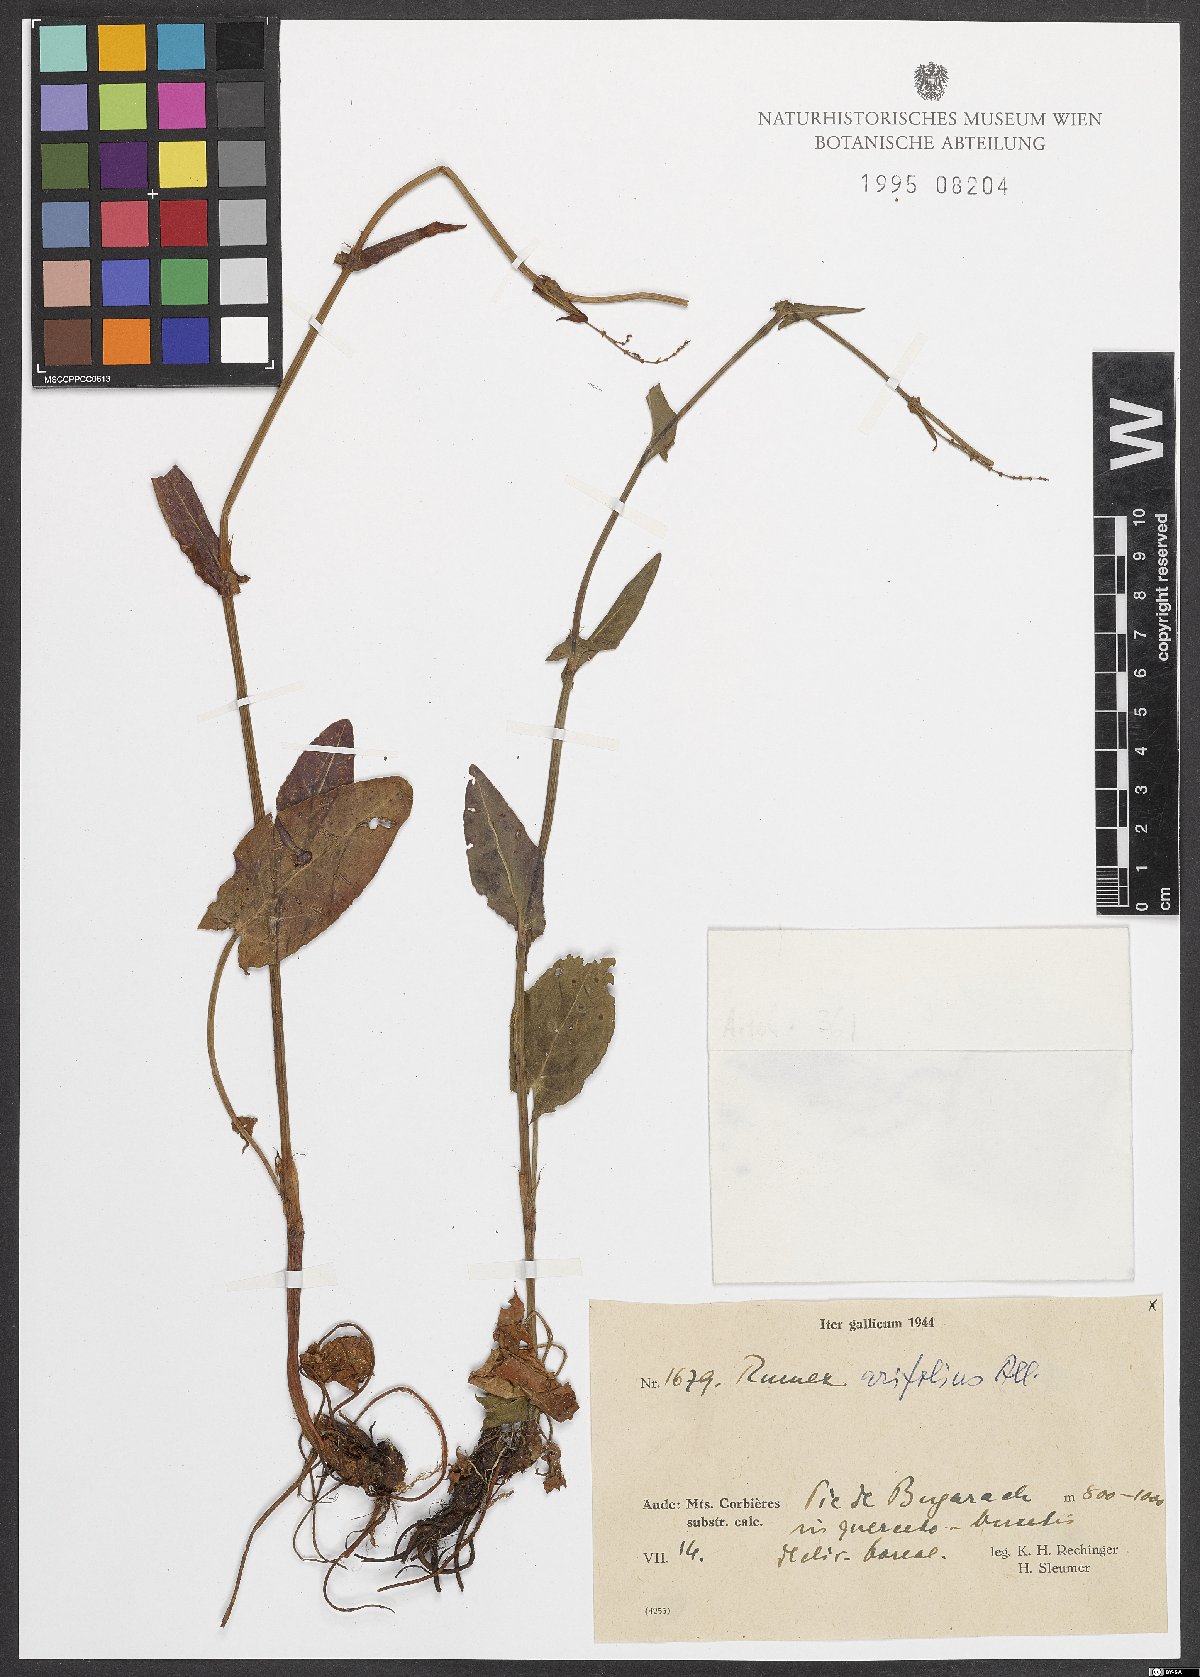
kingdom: Plantae
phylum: Tracheophyta
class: Magnoliopsida
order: Caryophyllales
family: Polygonaceae
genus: Rumex
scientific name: Rumex arifolius
